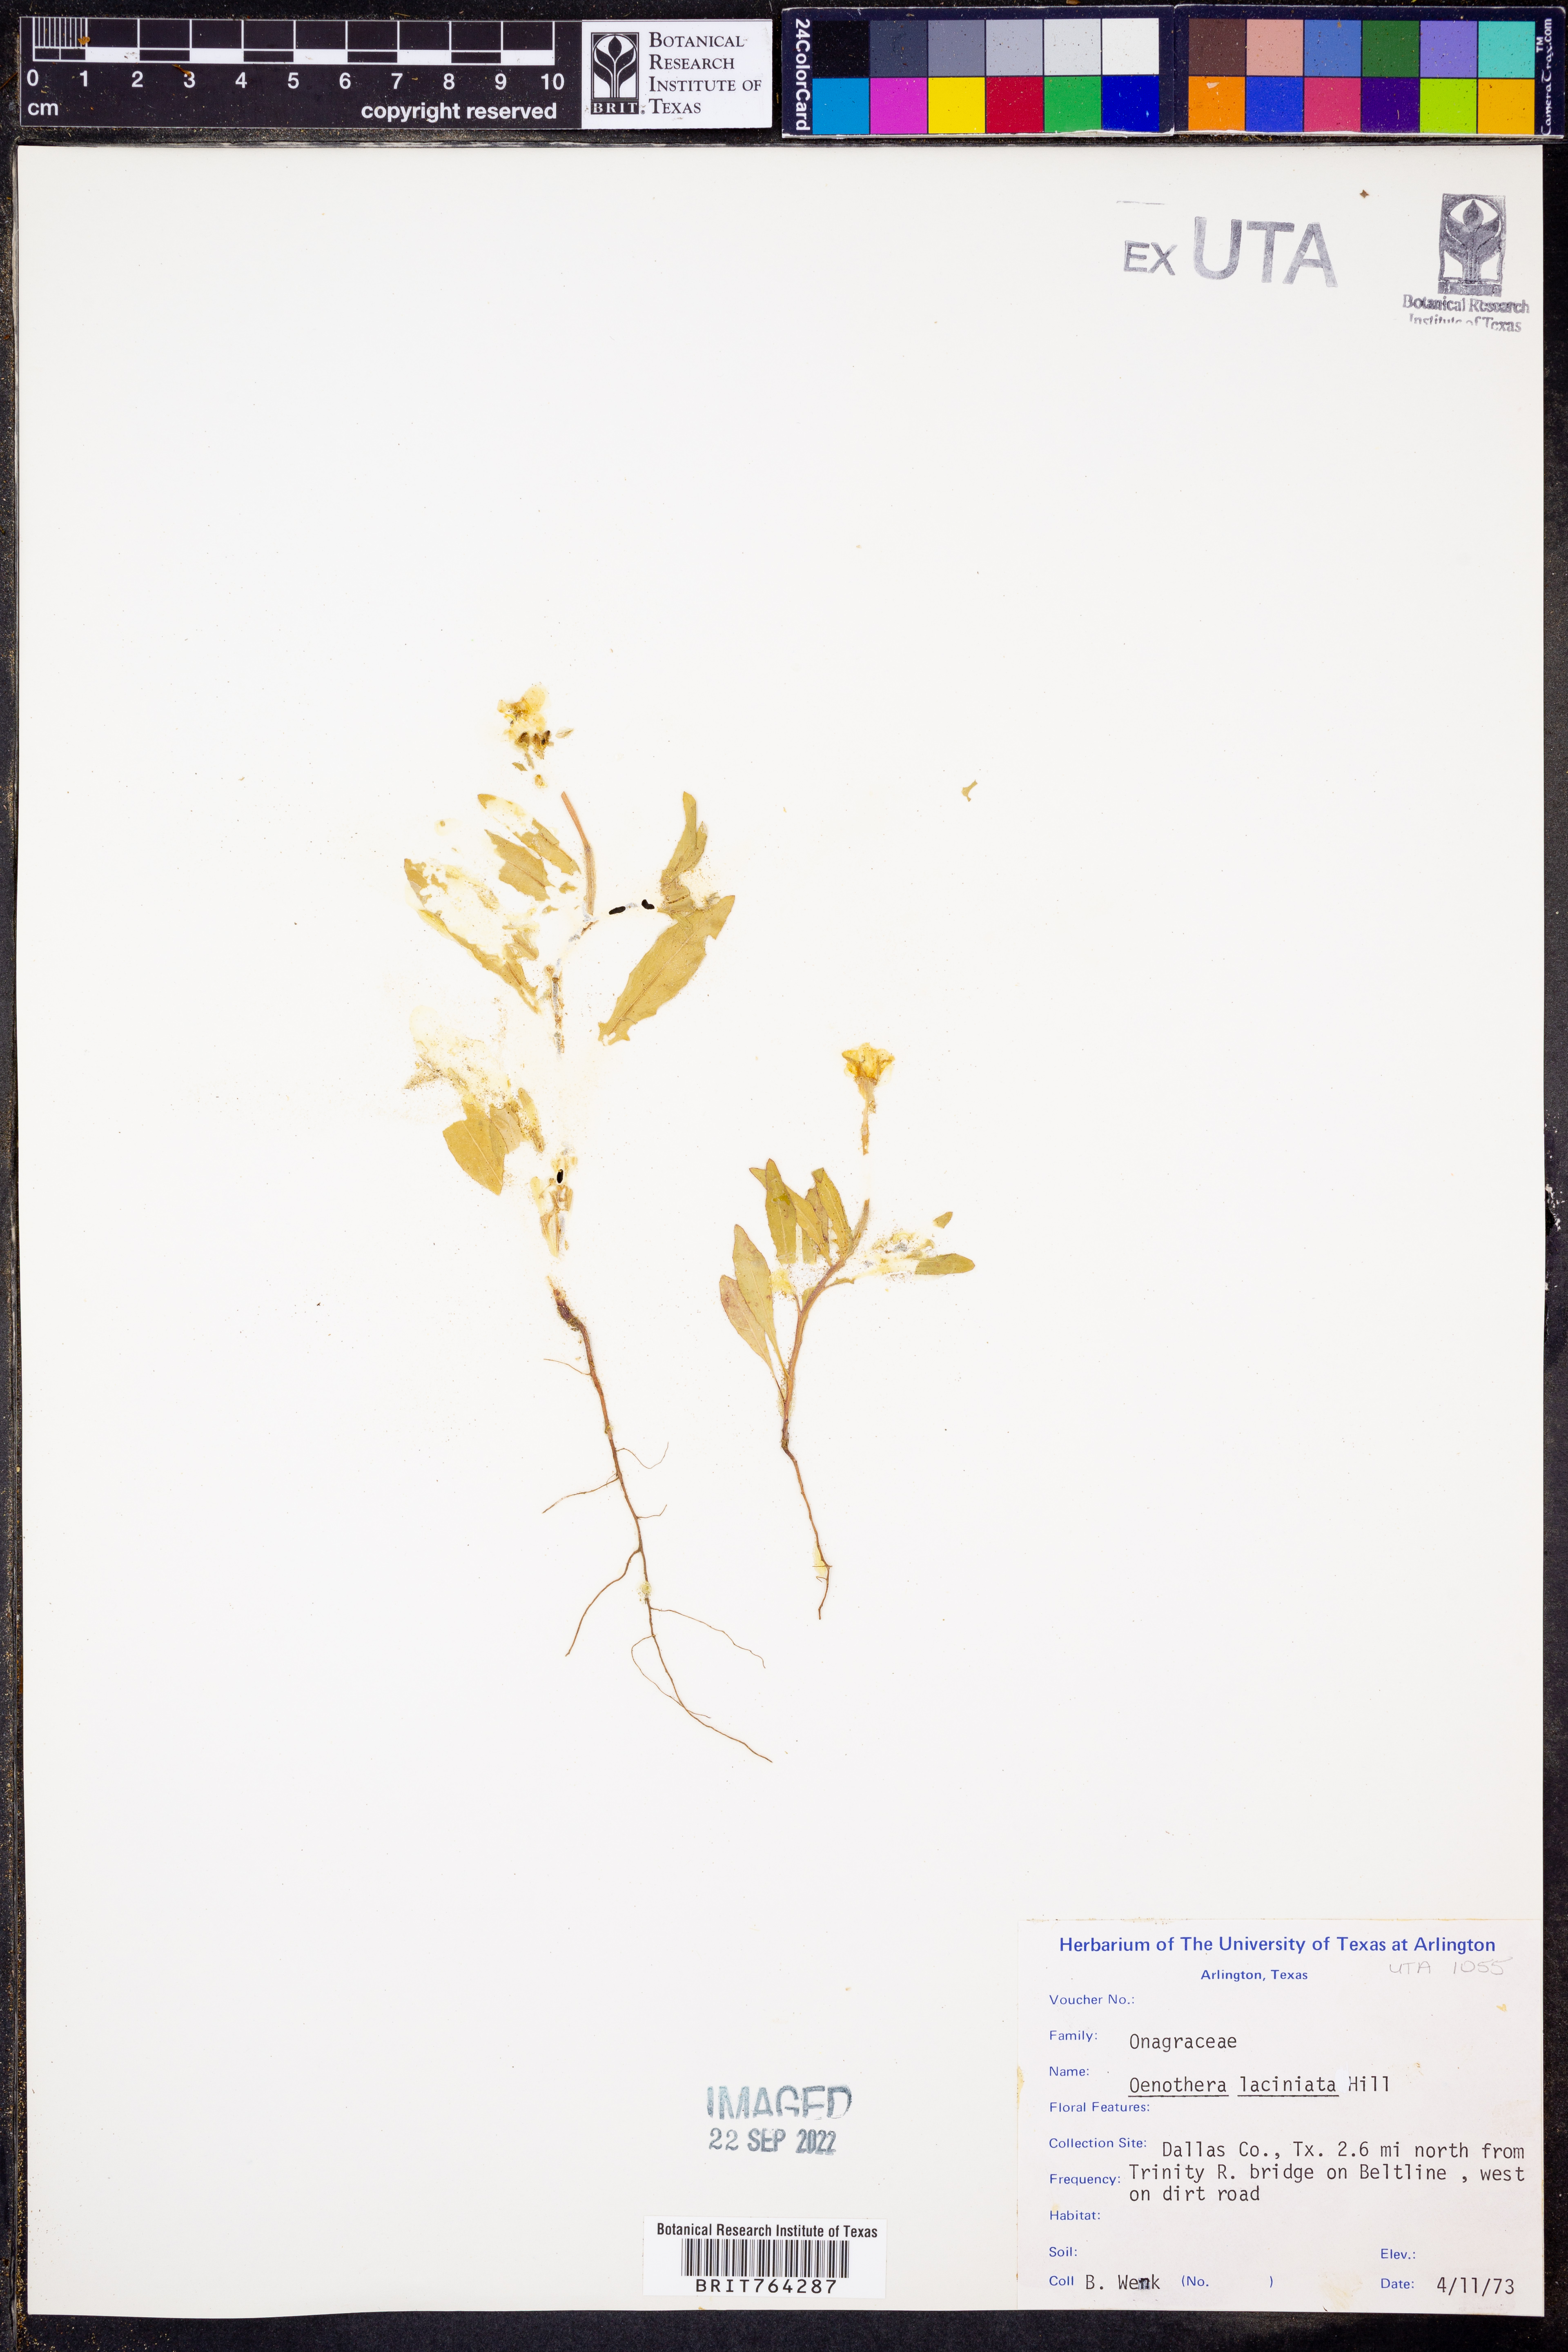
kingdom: Plantae
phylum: Tracheophyta
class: Magnoliopsida
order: Myrtales
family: Onagraceae
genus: Oenothera
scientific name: Oenothera laciniata
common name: Cut-leaved evening-primrose
